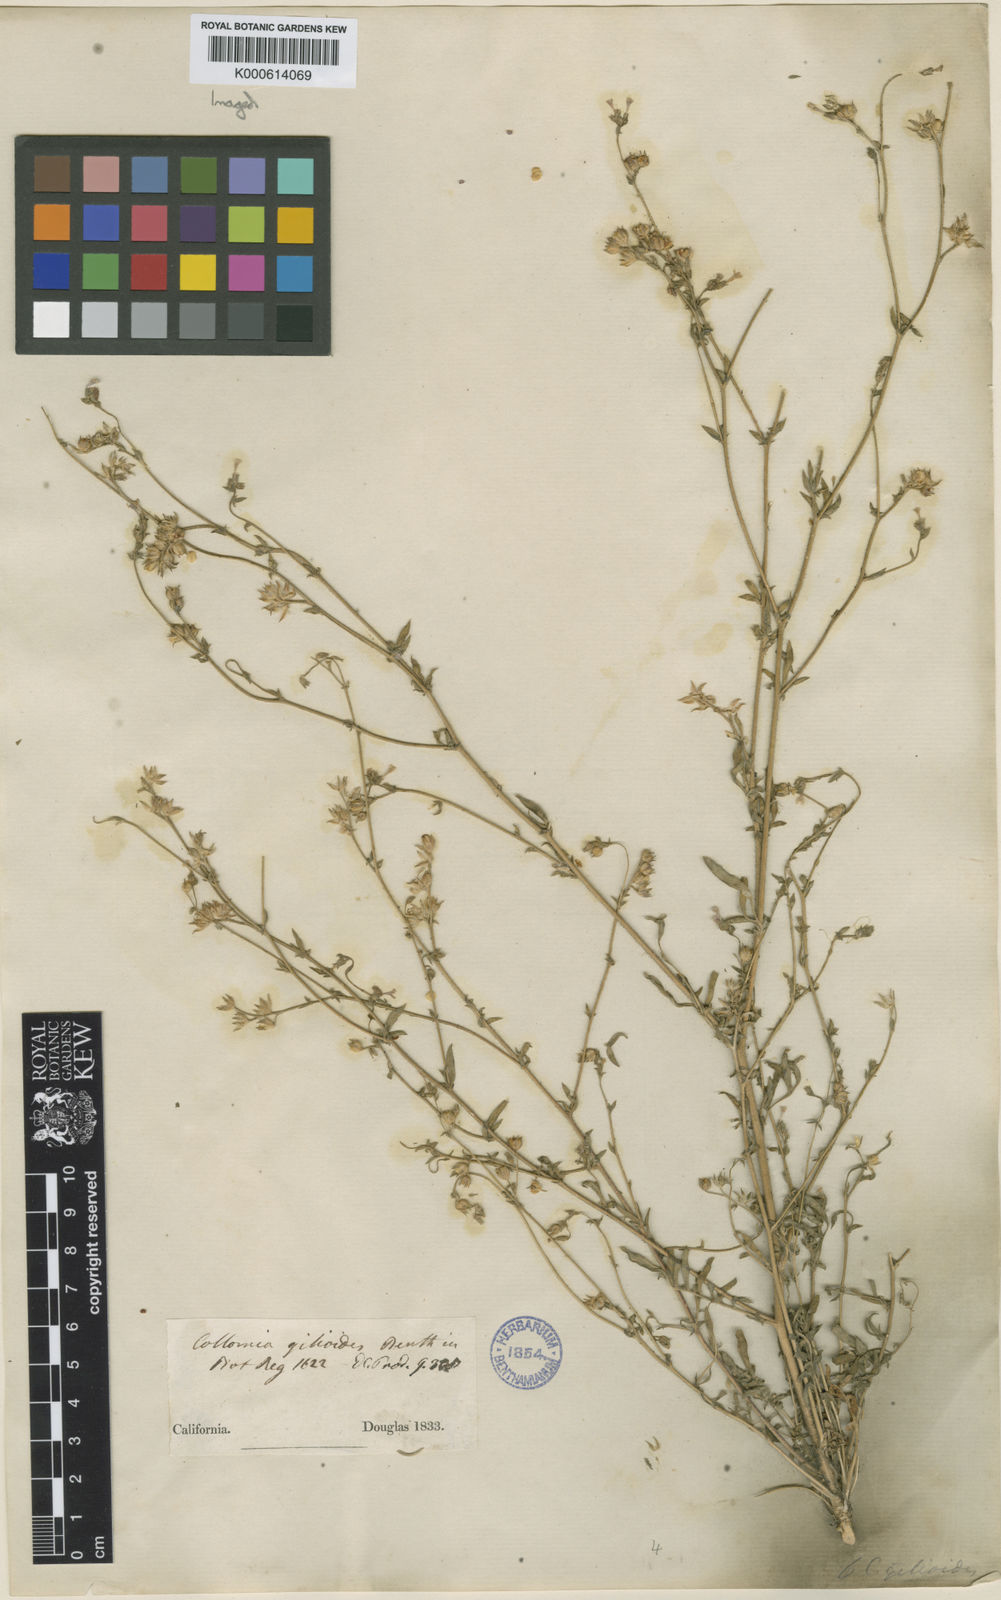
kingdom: Plantae
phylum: Tracheophyta
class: Magnoliopsida
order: Ericales
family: Polemoniaceae
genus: Allophyllum
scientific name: Allophyllum gilioides
